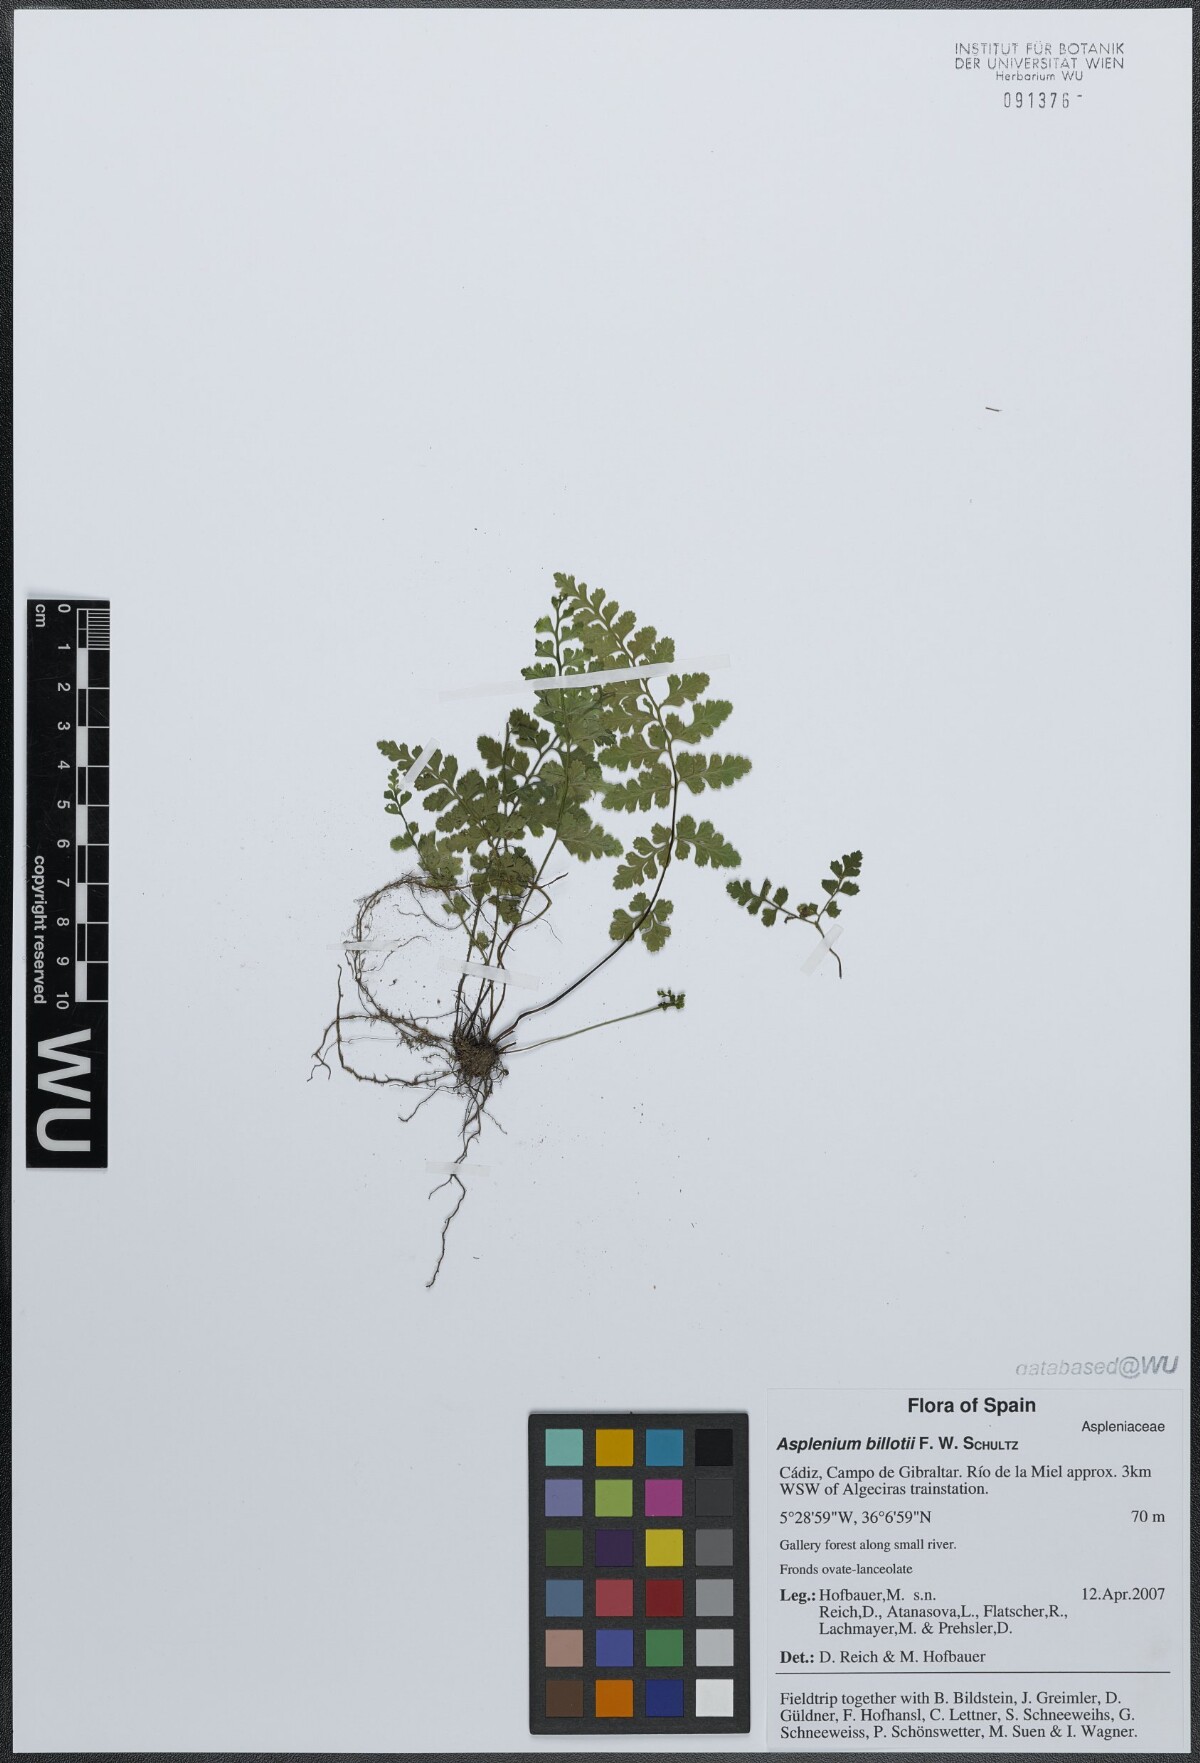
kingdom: Plantae
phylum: Tracheophyta
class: Polypodiopsida
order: Polypodiales
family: Aspleniaceae
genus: Asplenium
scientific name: Asplenium obovatum
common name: Lanceolate spleenwort
